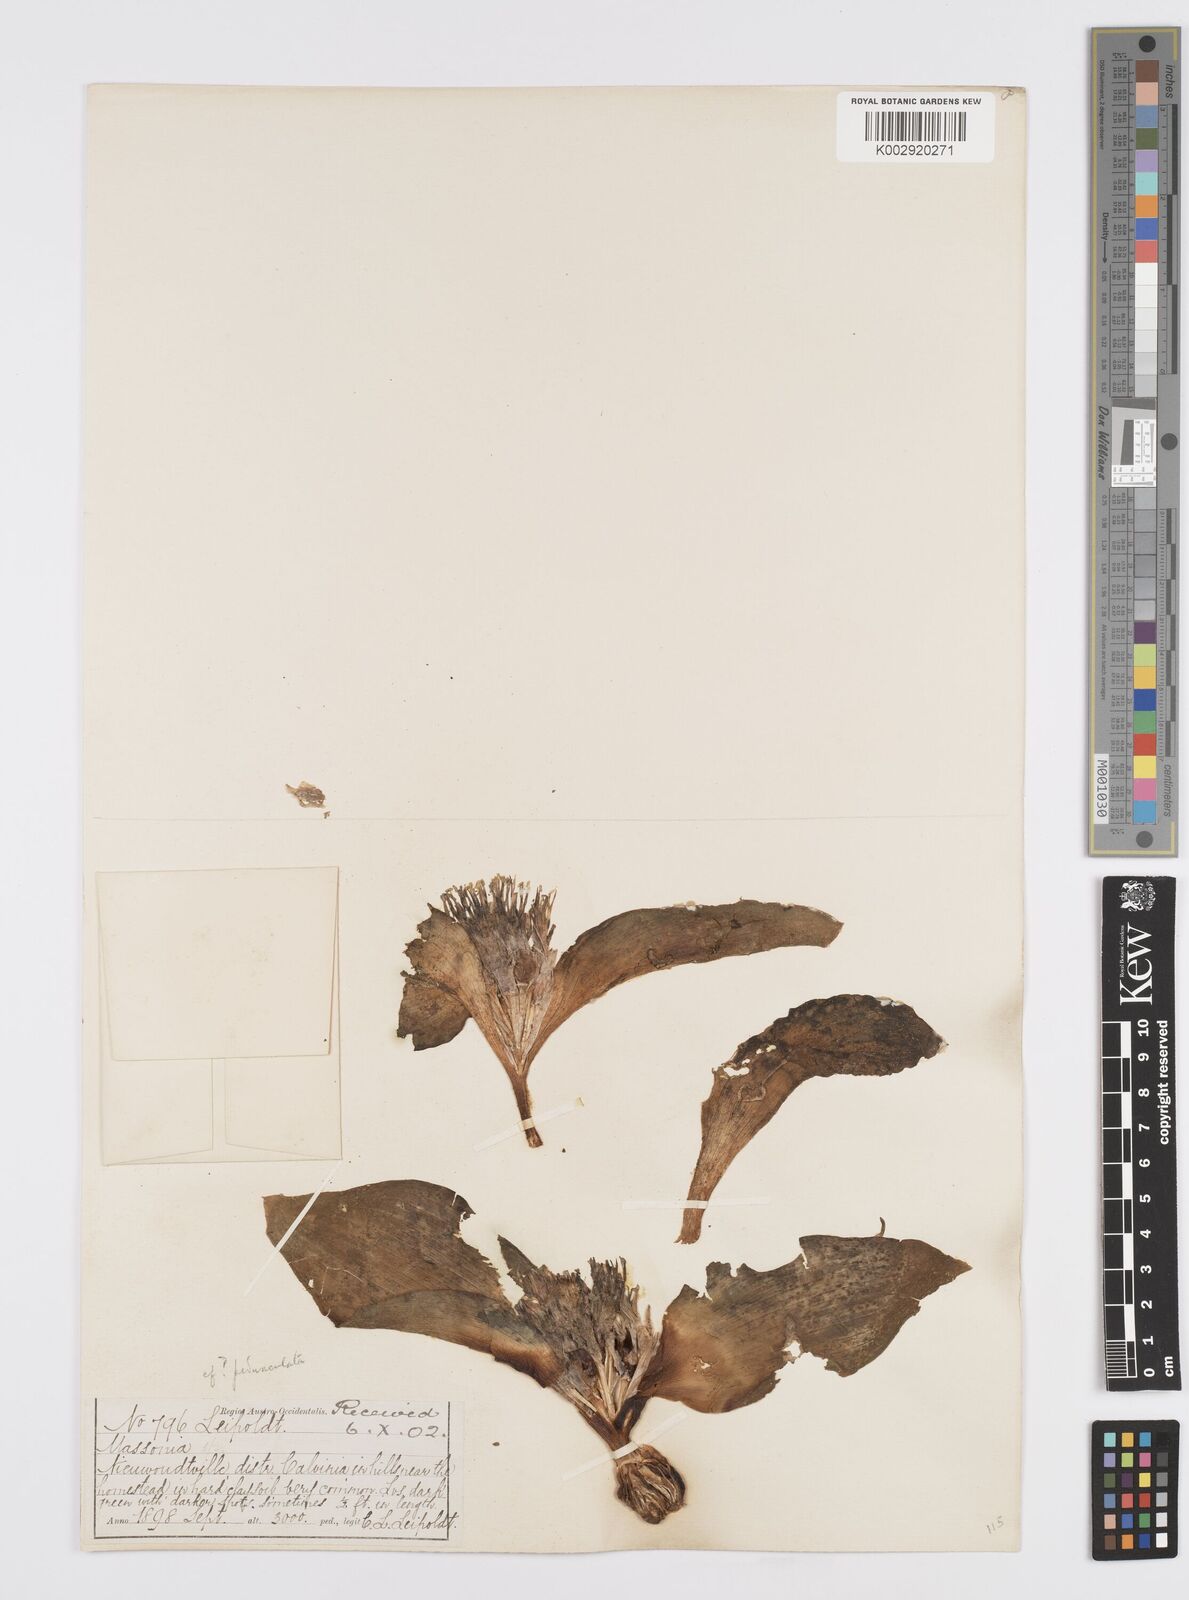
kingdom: Plantae
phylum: Tracheophyta
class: Liliopsida
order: Asparagales
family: Asparagaceae
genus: Daubenya
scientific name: Daubenya capensis
